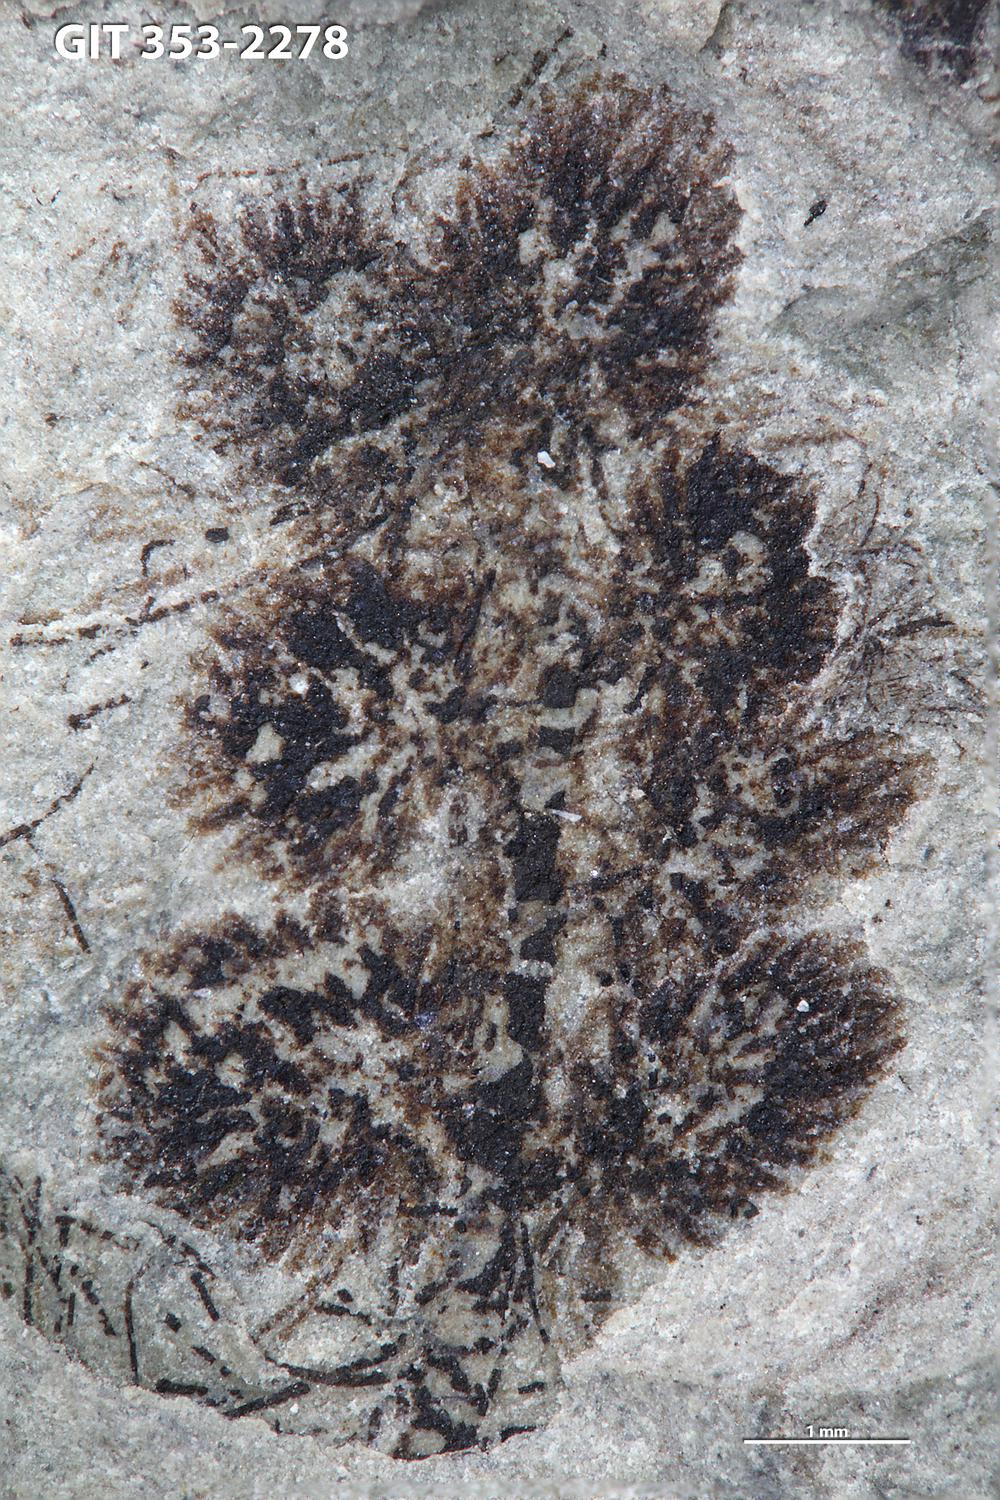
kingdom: Plantae
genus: Leveilleites
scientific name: Leveilleites hartnageli
